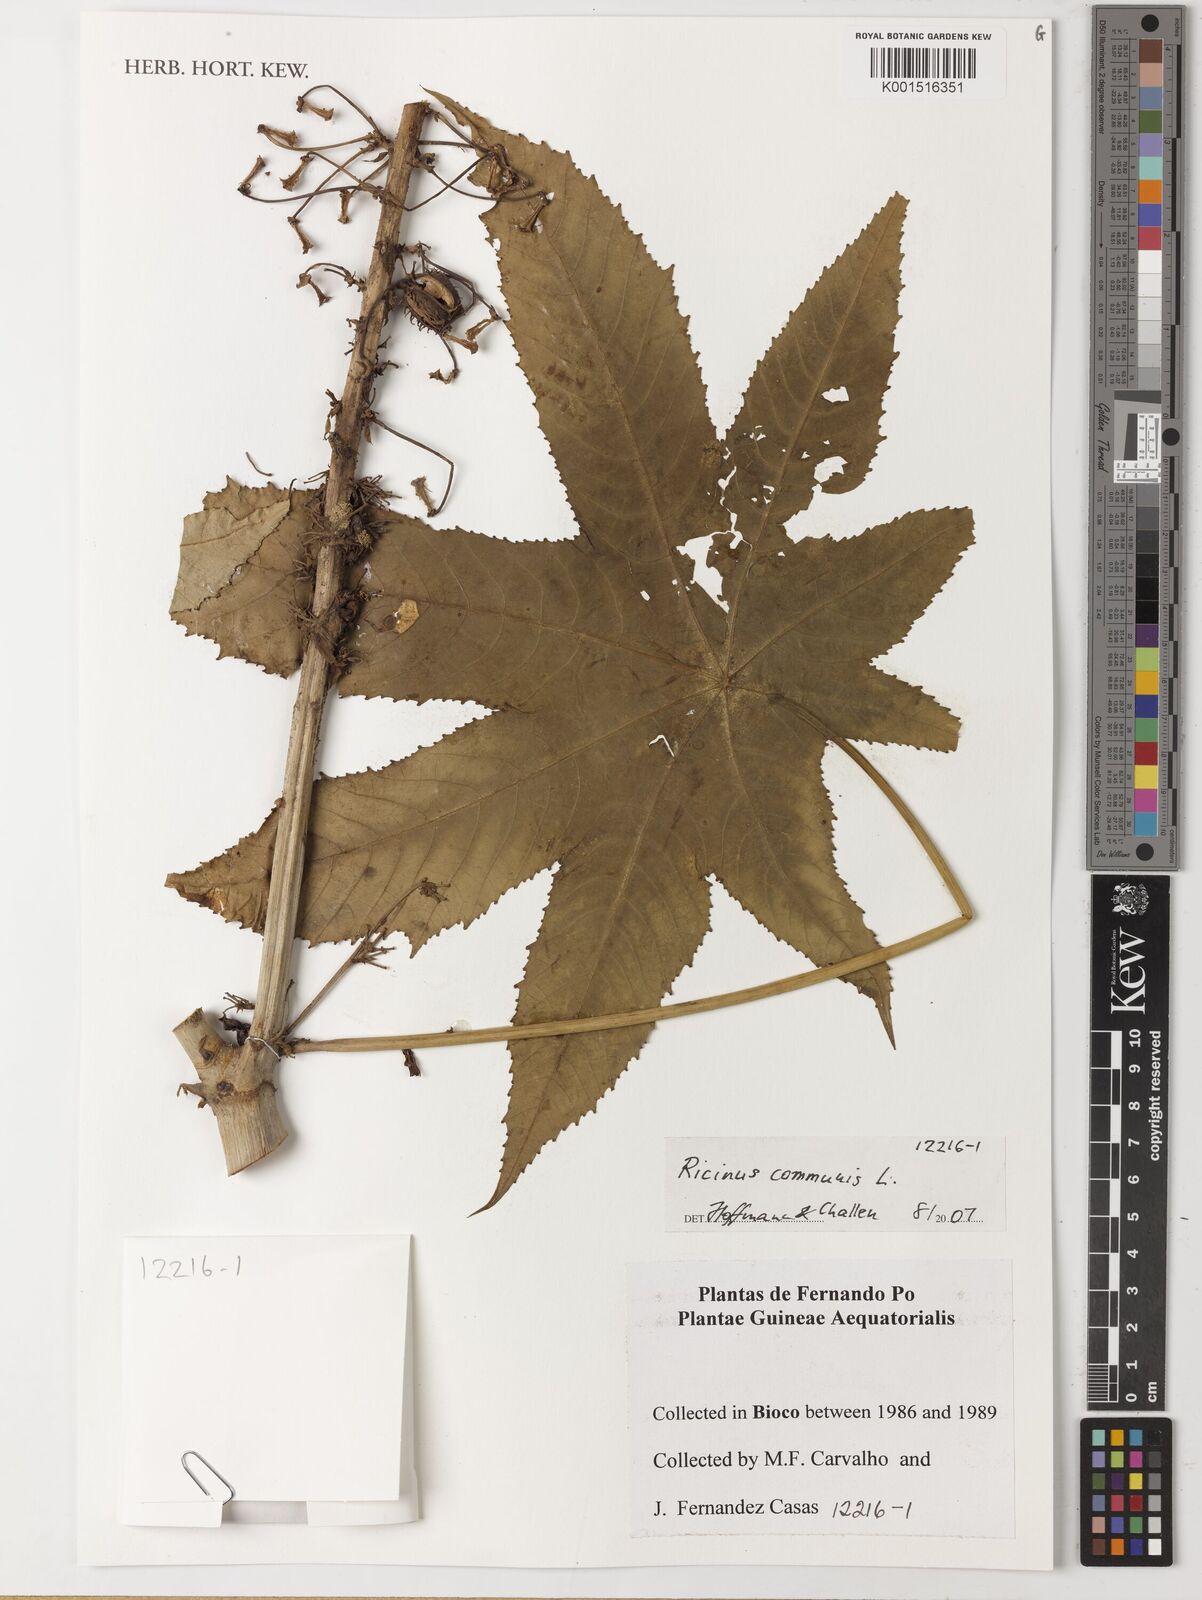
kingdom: Plantae
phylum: Tracheophyta
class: Magnoliopsida
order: Malpighiales
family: Euphorbiaceae
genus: Ricinus
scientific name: Ricinus communis
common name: Castor-oil-plant
